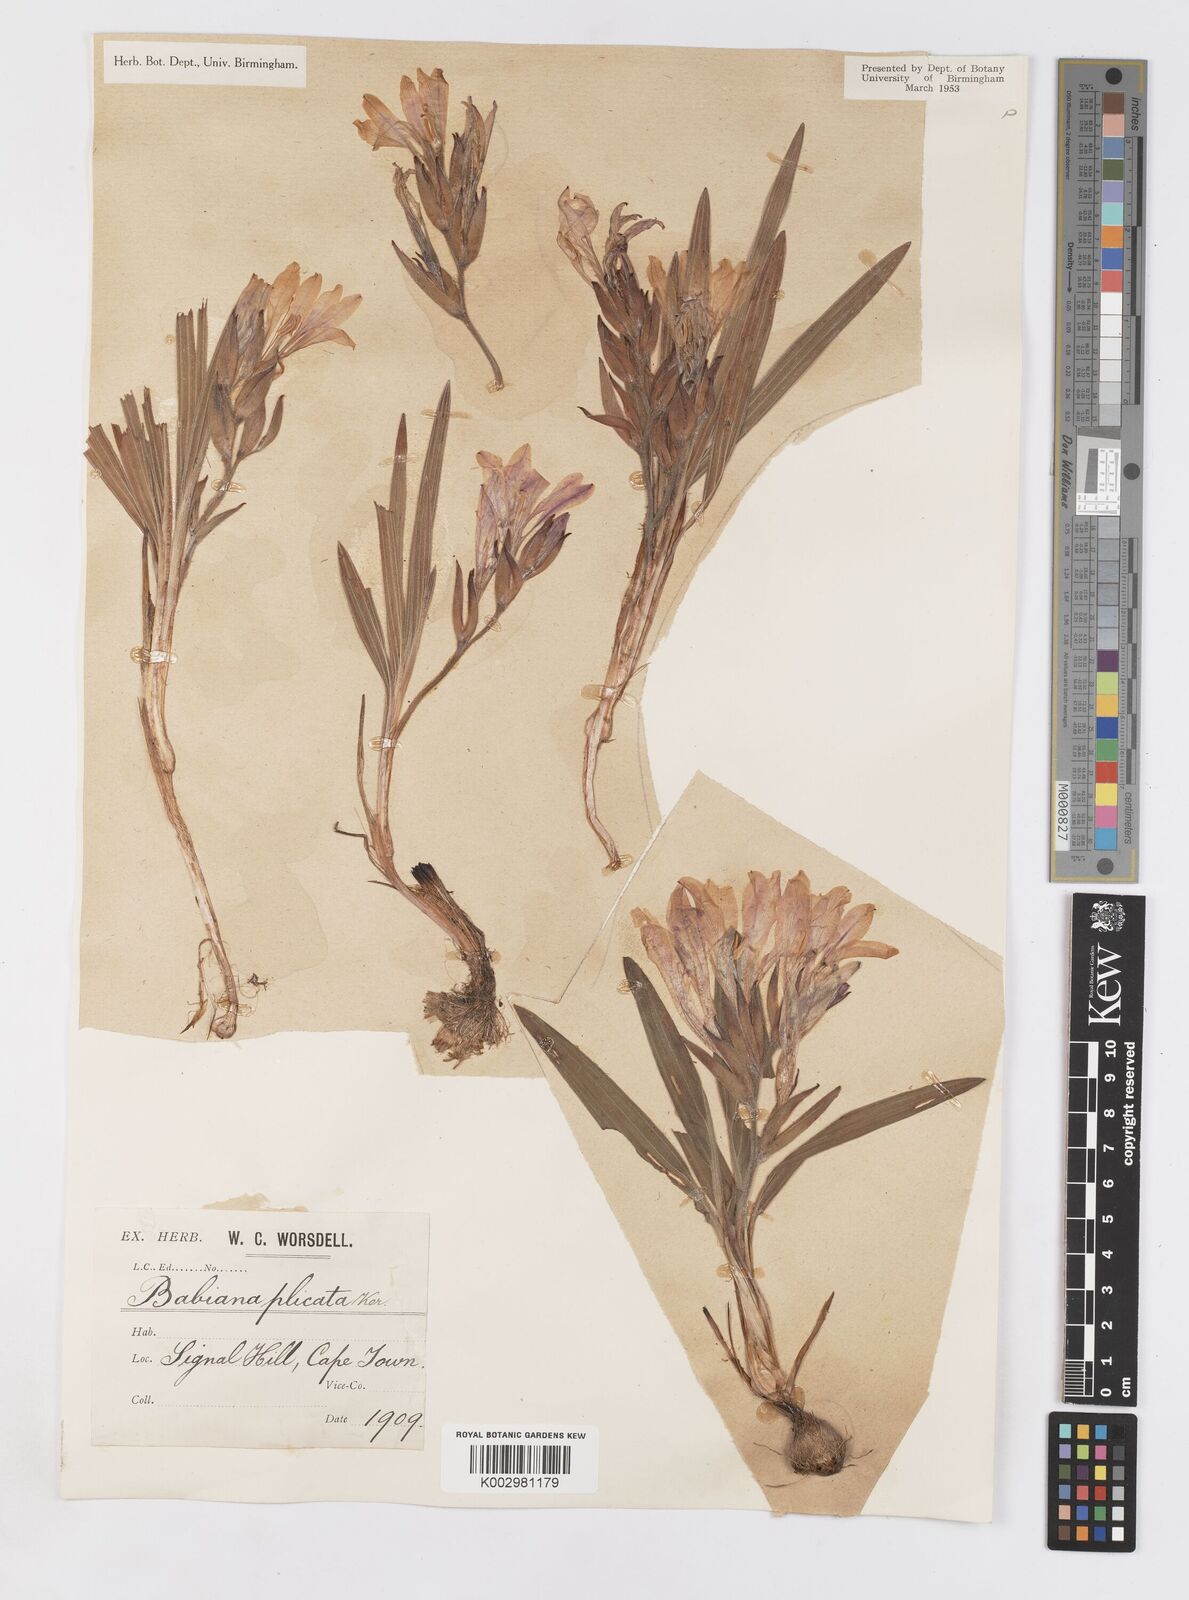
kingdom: Plantae
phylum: Tracheophyta
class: Liliopsida
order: Asparagales
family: Iridaceae
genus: Babiana
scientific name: Babiana fragrans
